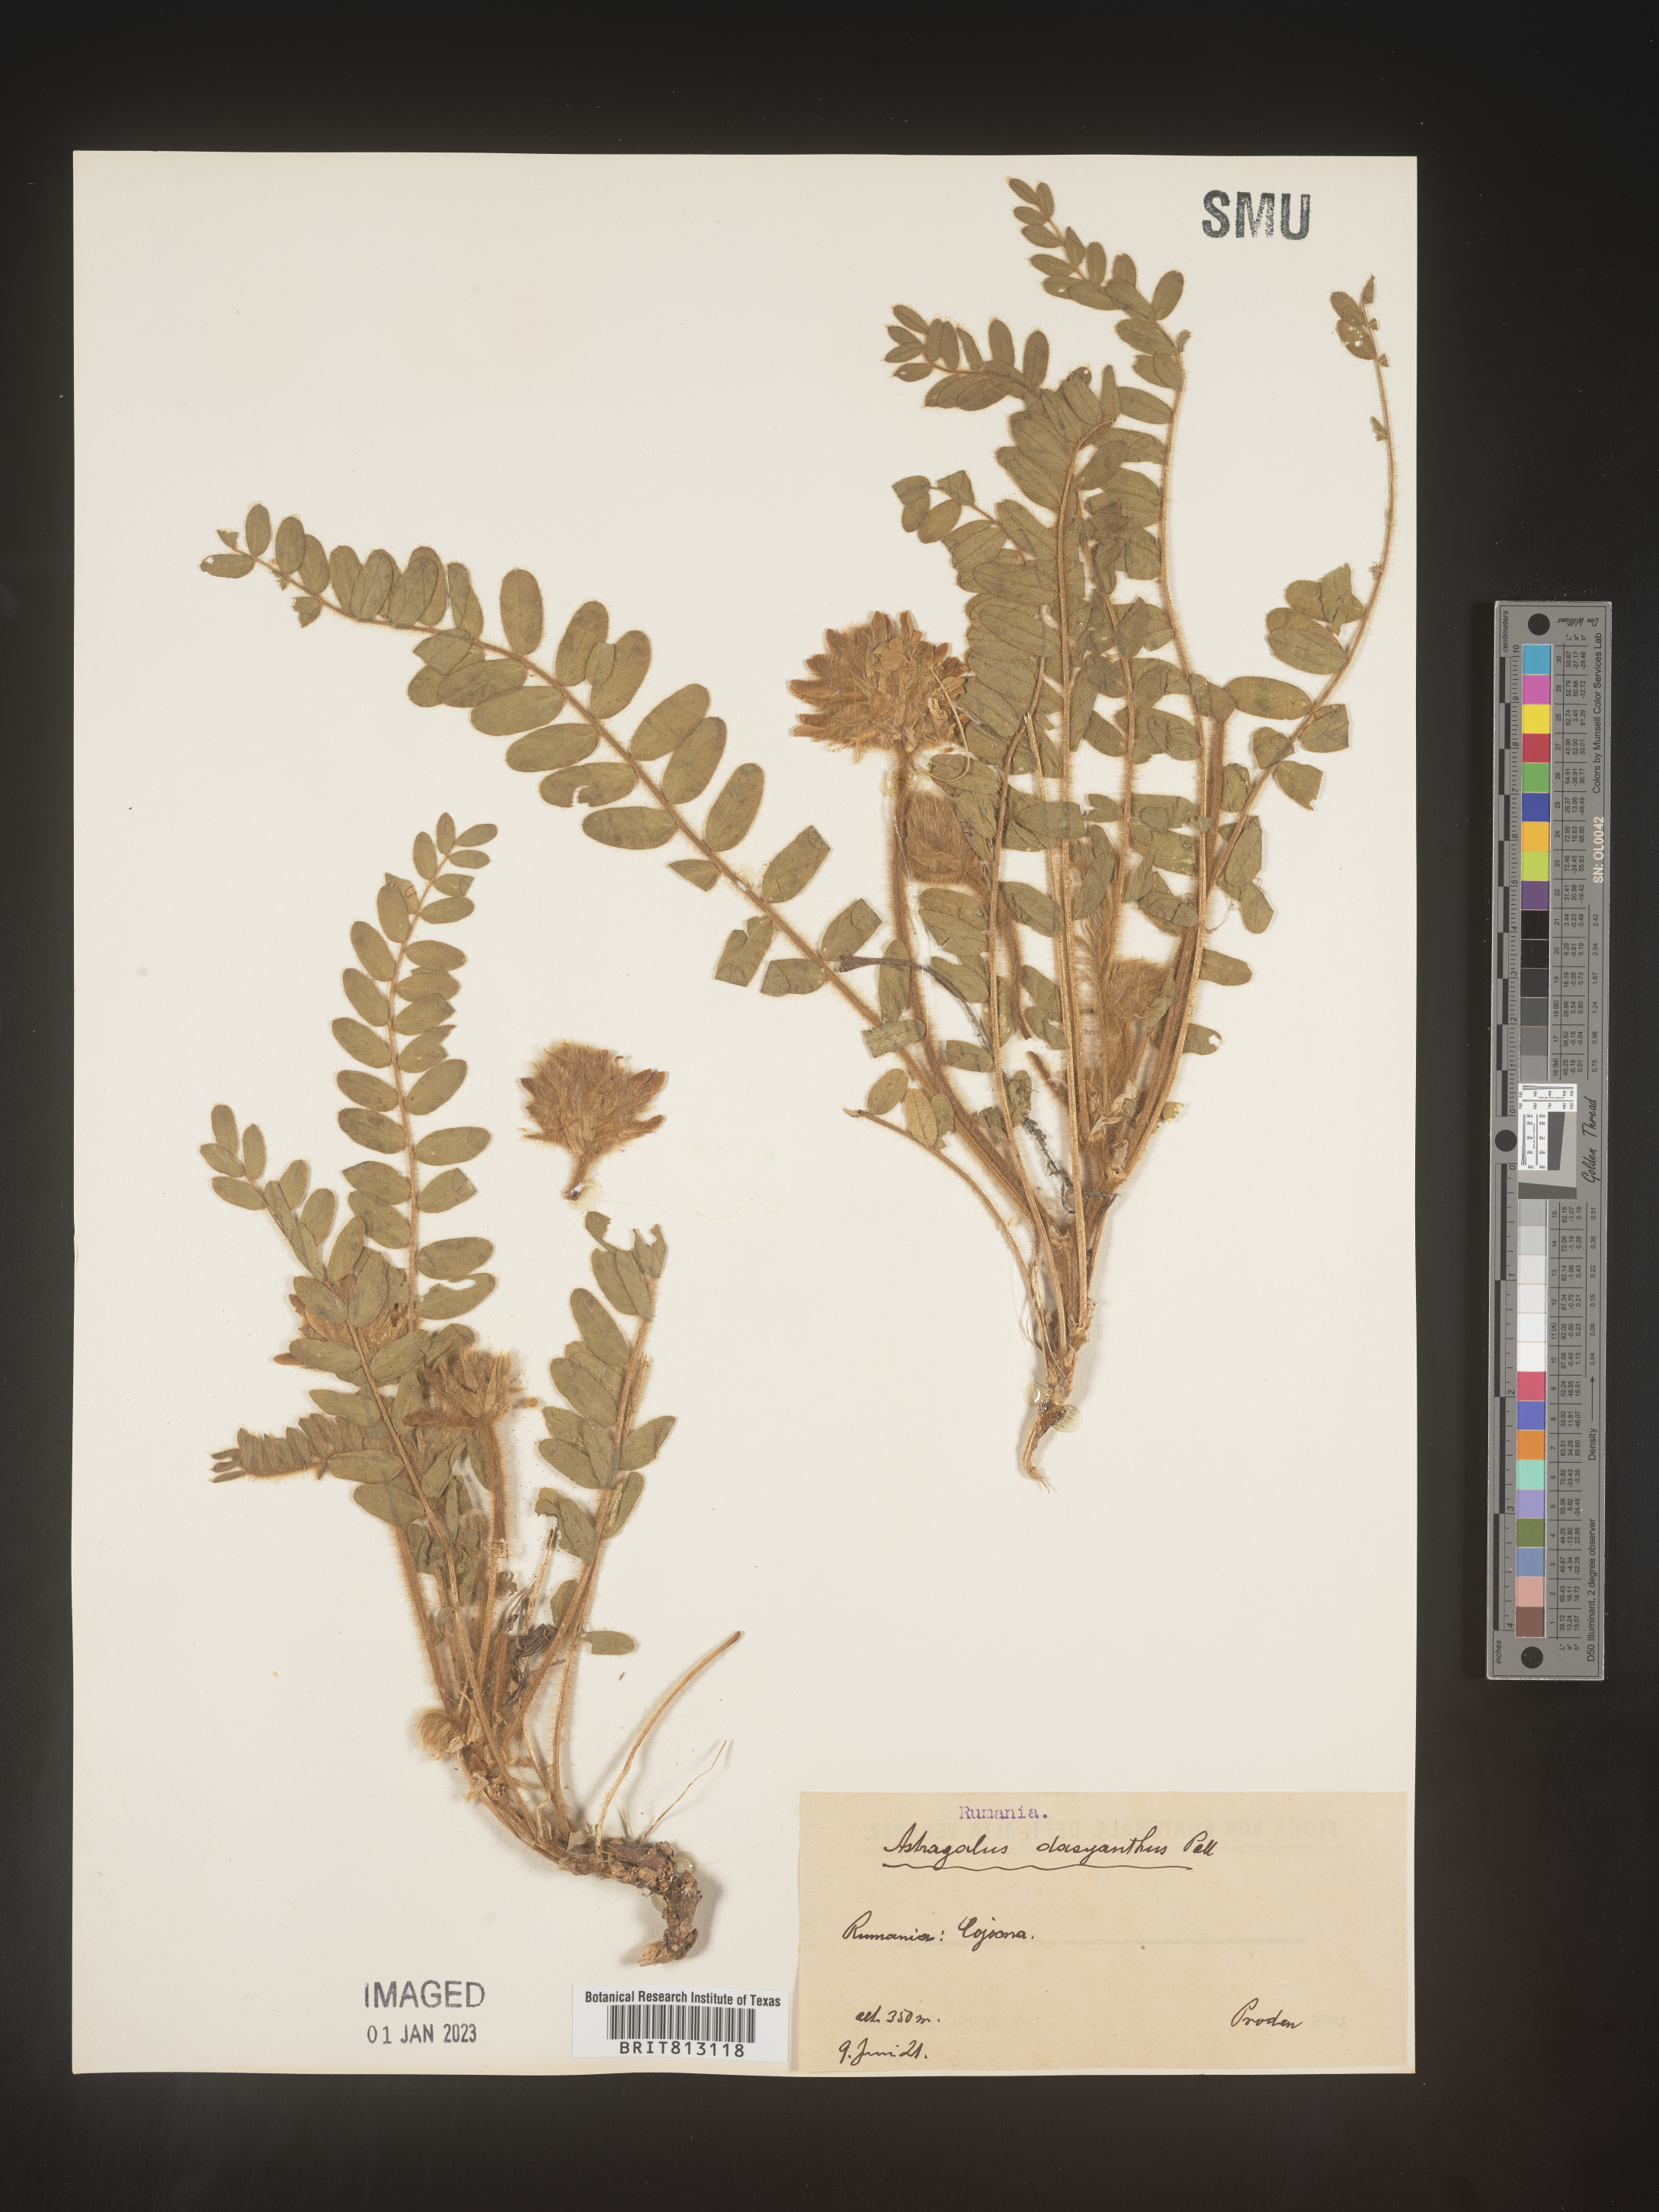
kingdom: Plantae
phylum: Tracheophyta
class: Magnoliopsida
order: Fabales
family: Fabaceae
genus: Astragalus
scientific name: Astragalus
